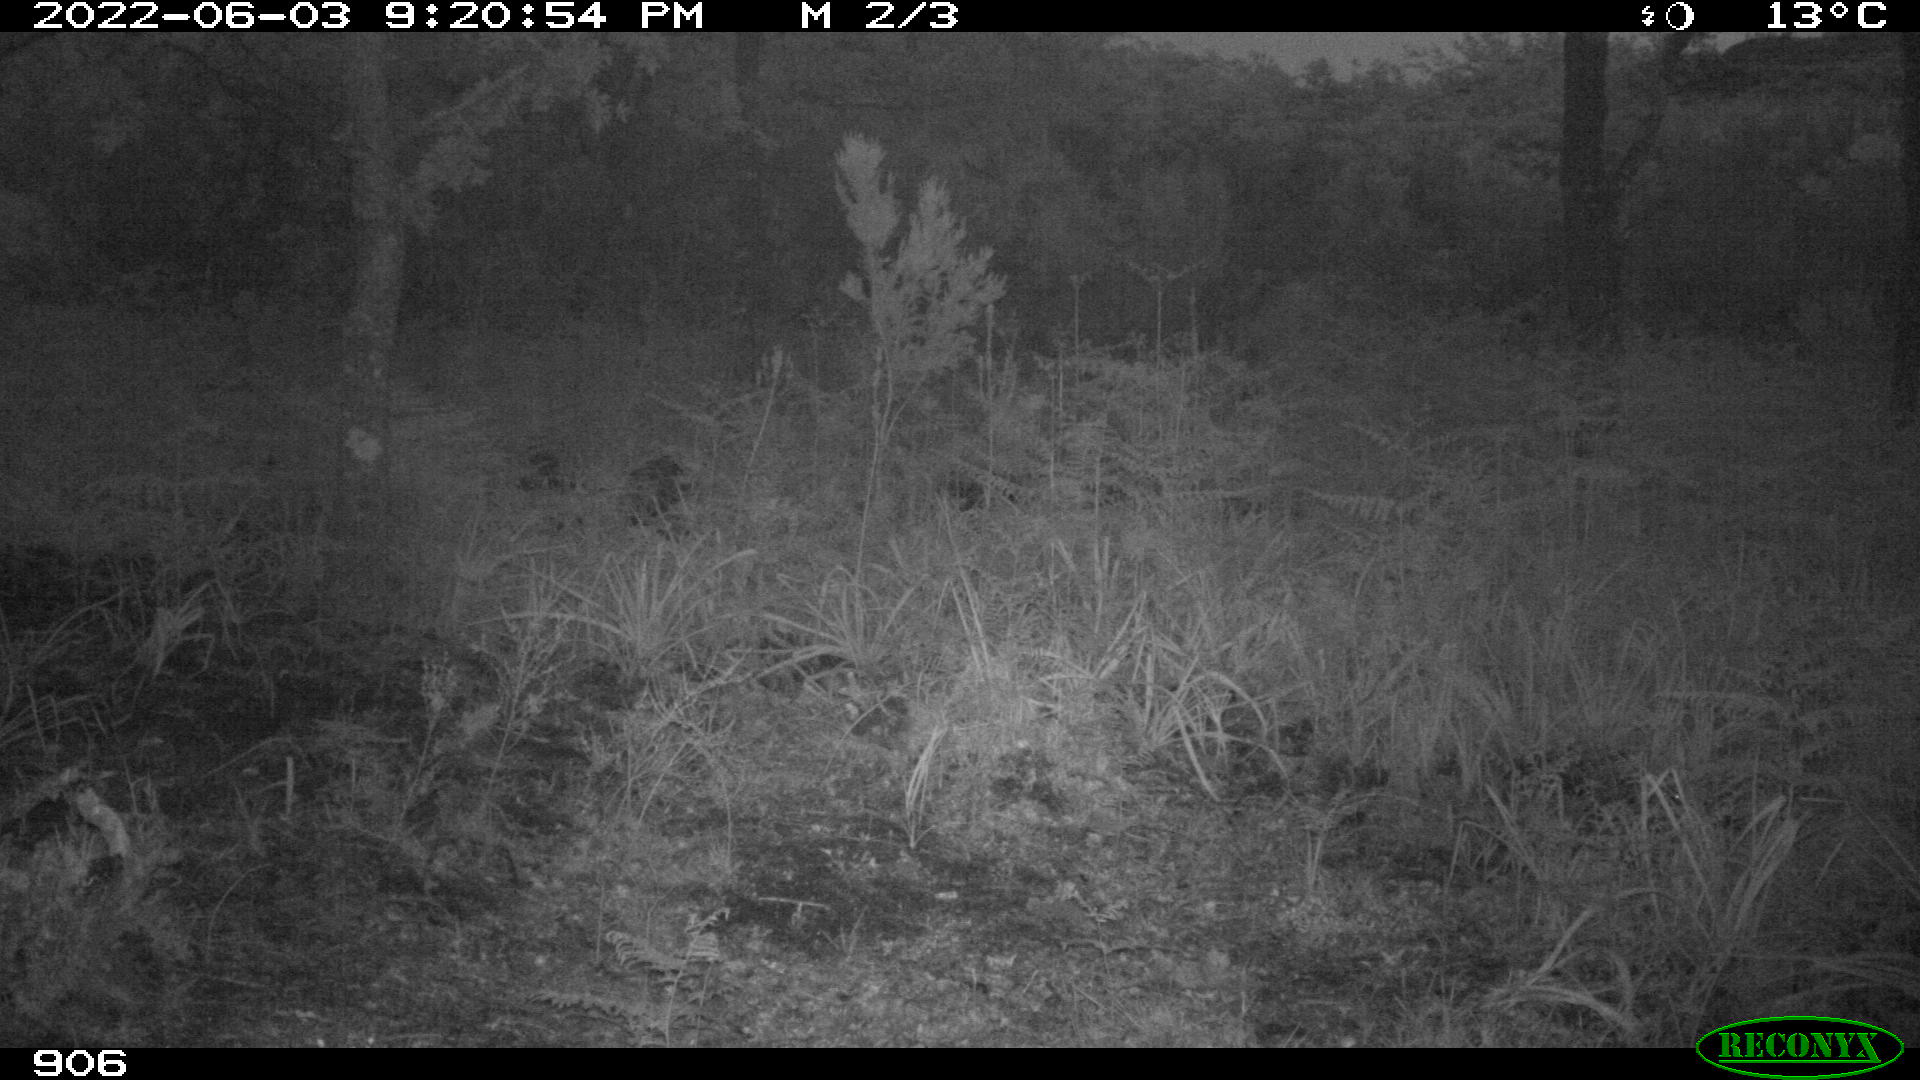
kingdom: Animalia
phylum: Chordata
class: Mammalia
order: Artiodactyla
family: Suidae
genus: Sus
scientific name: Sus scrofa
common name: Wild boar
